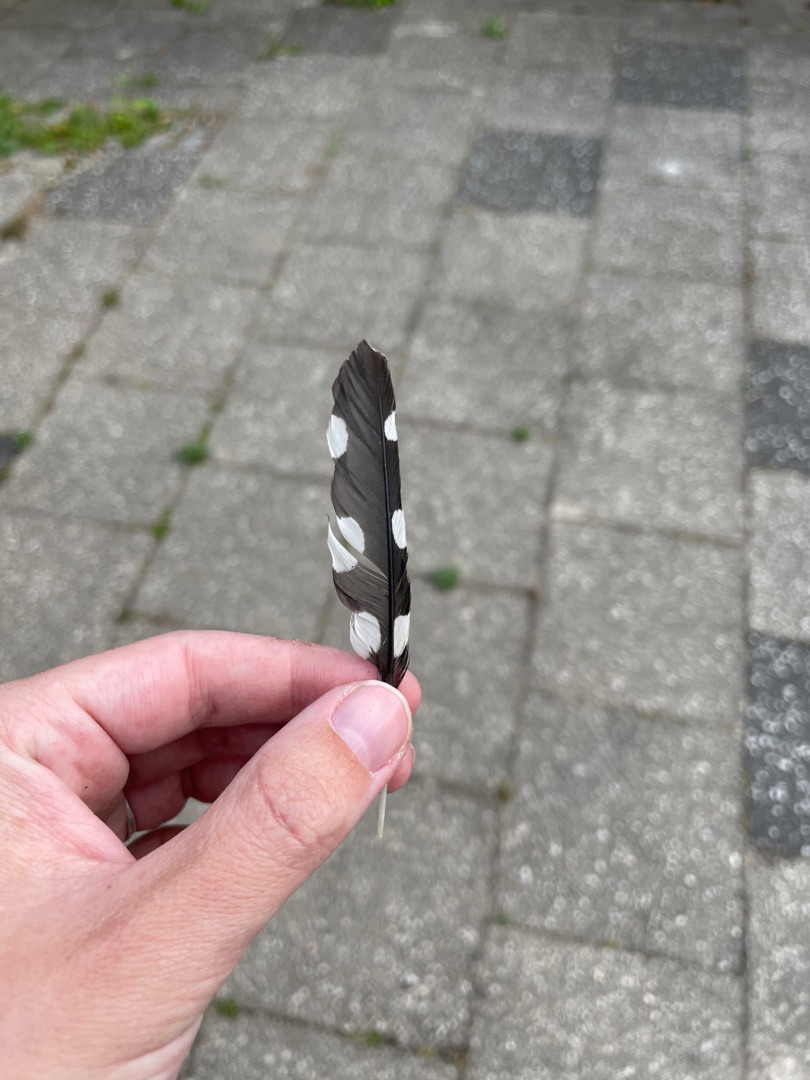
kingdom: Animalia
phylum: Chordata
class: Aves
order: Piciformes
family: Picidae
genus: Dendrocopos
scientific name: Dendrocopos major
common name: Stor flagspætte
